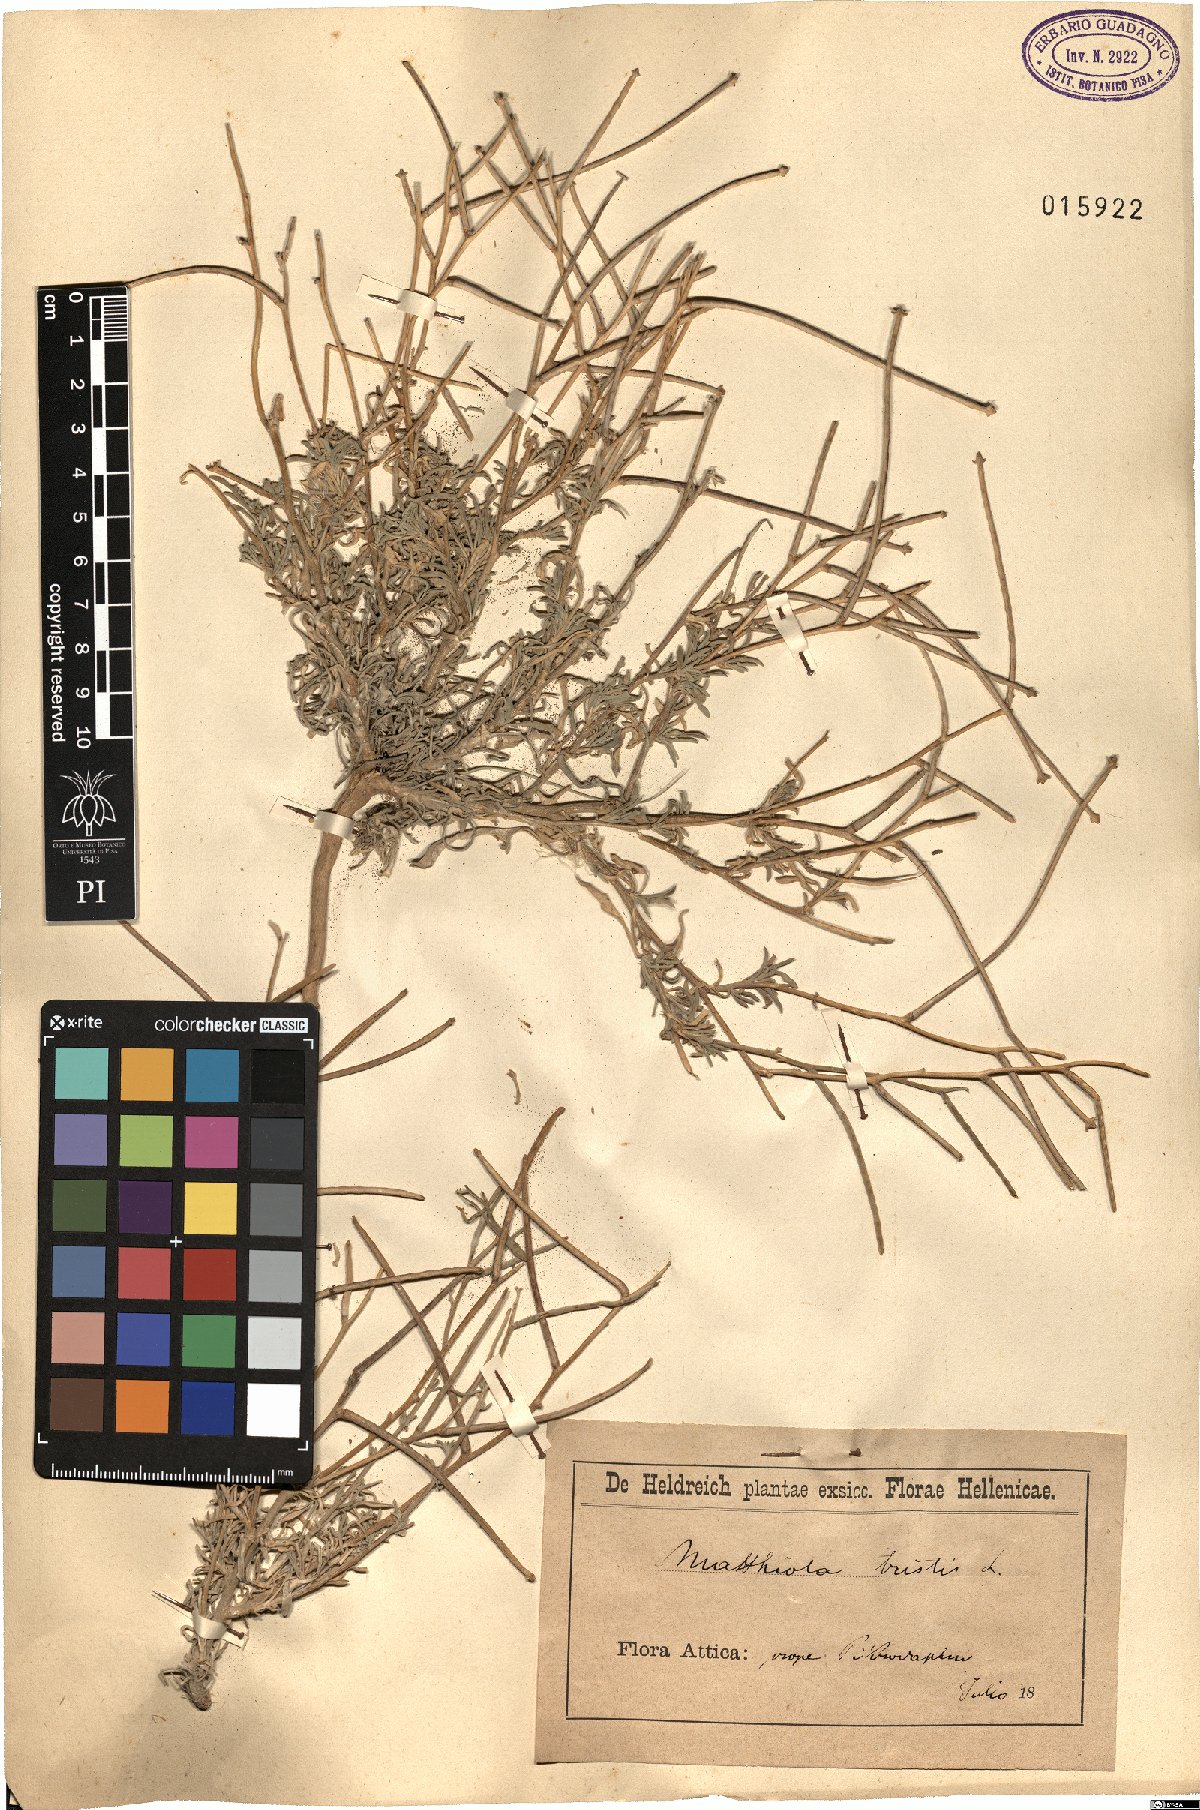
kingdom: Plantae
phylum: Tracheophyta
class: Magnoliopsida
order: Brassicales
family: Brassicaceae
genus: Matthiola
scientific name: Matthiola fruticulosa
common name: Sad stock
